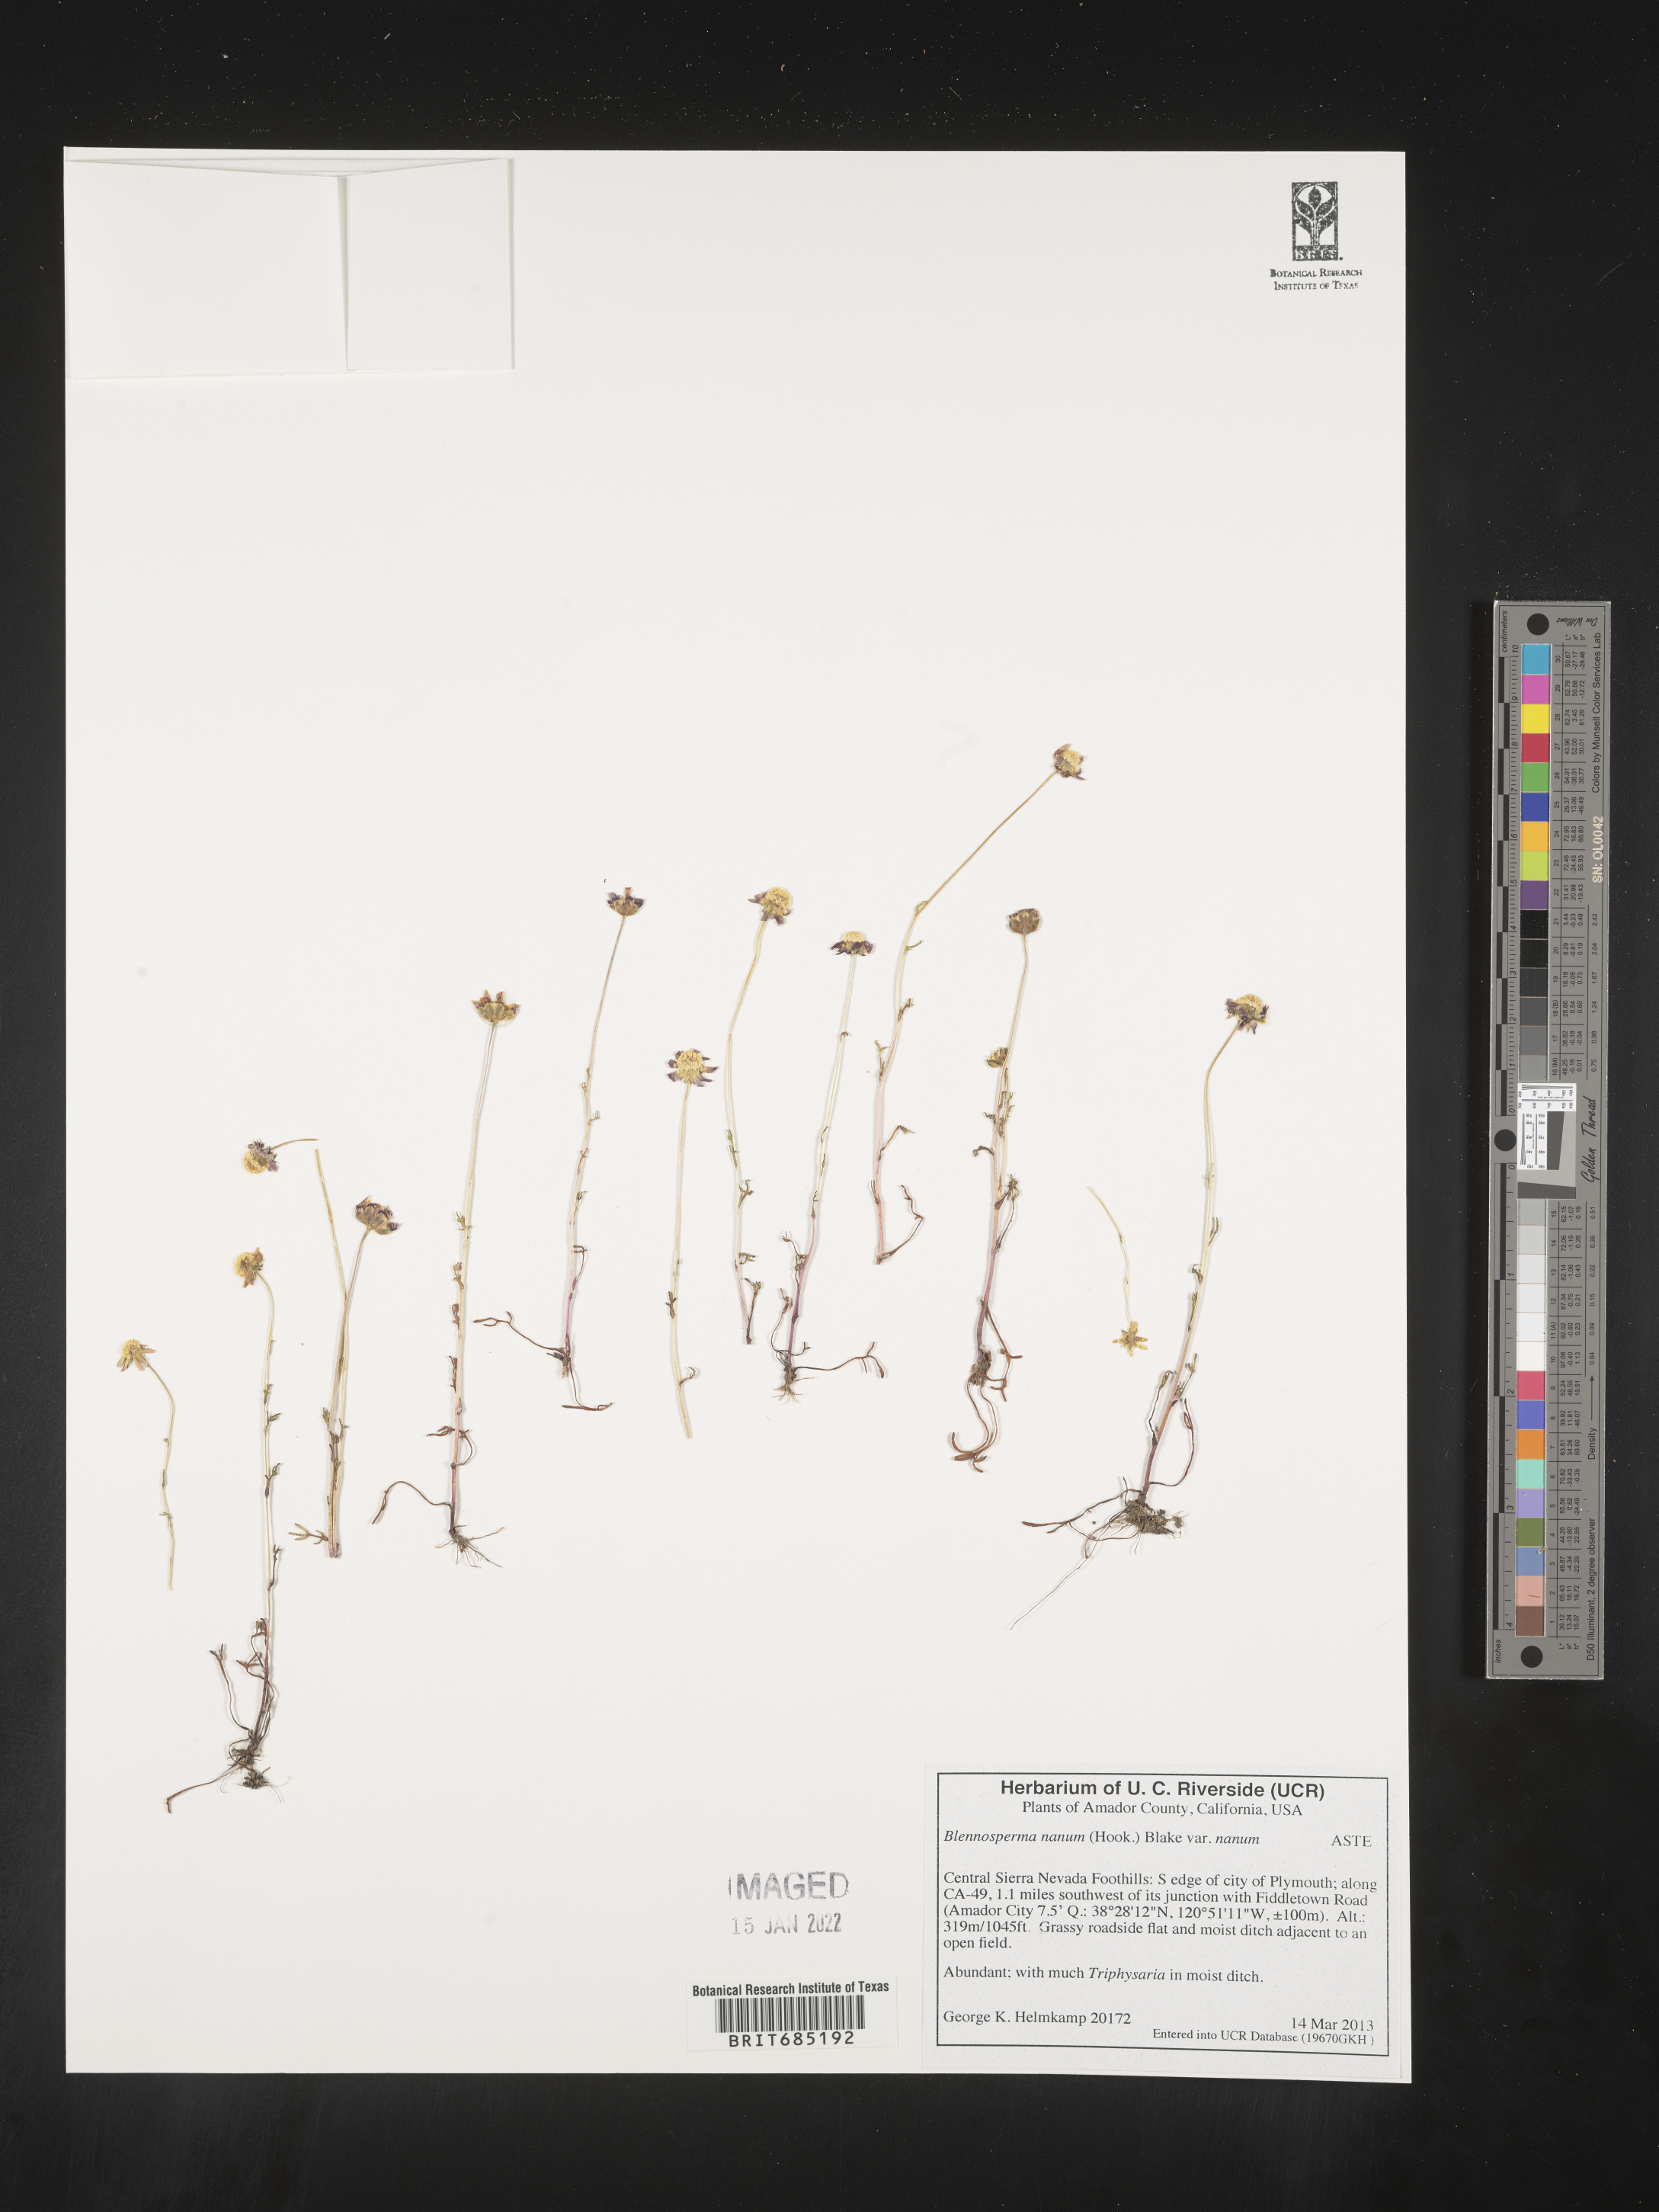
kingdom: Plantae
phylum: Tracheophyta
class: Magnoliopsida
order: Asterales
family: Asteraceae
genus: Blennosperma
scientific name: Blennosperma
